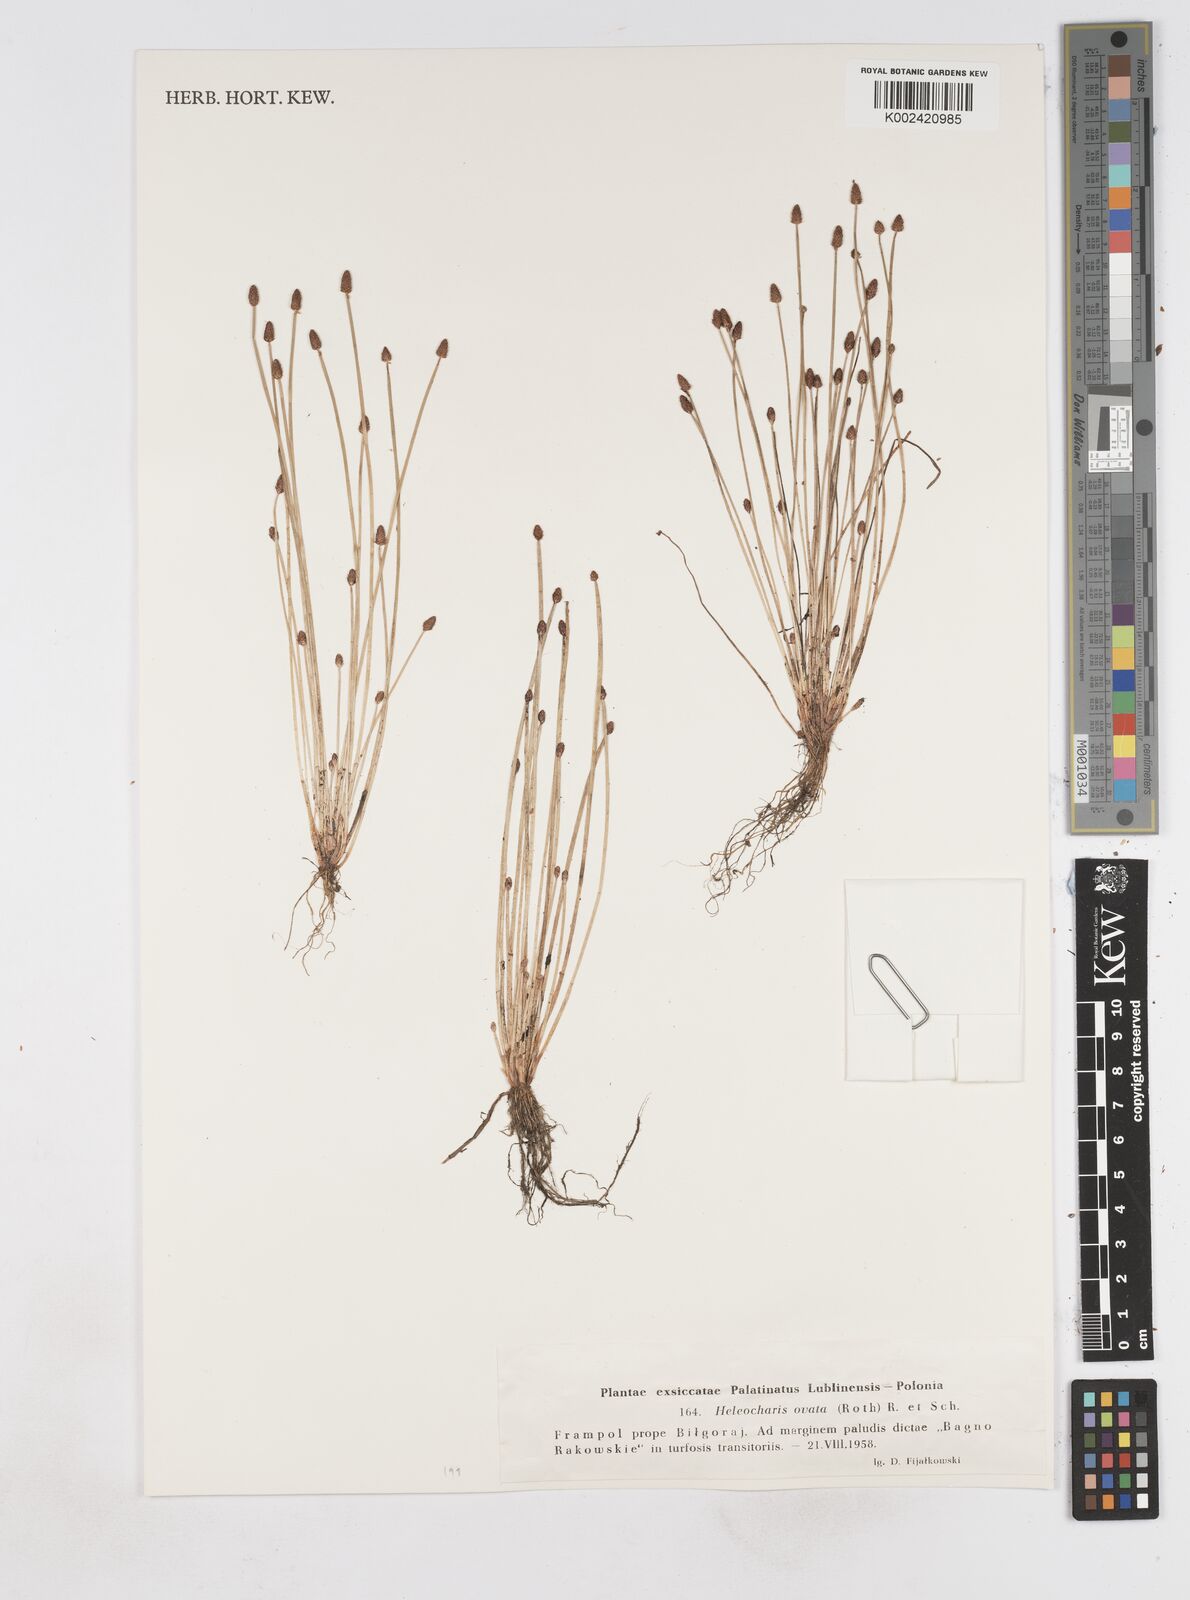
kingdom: Plantae
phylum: Tracheophyta
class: Liliopsida
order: Poales
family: Cyperaceae
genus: Eleocharis
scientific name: Eleocharis ovata
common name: Oval spike-rush
